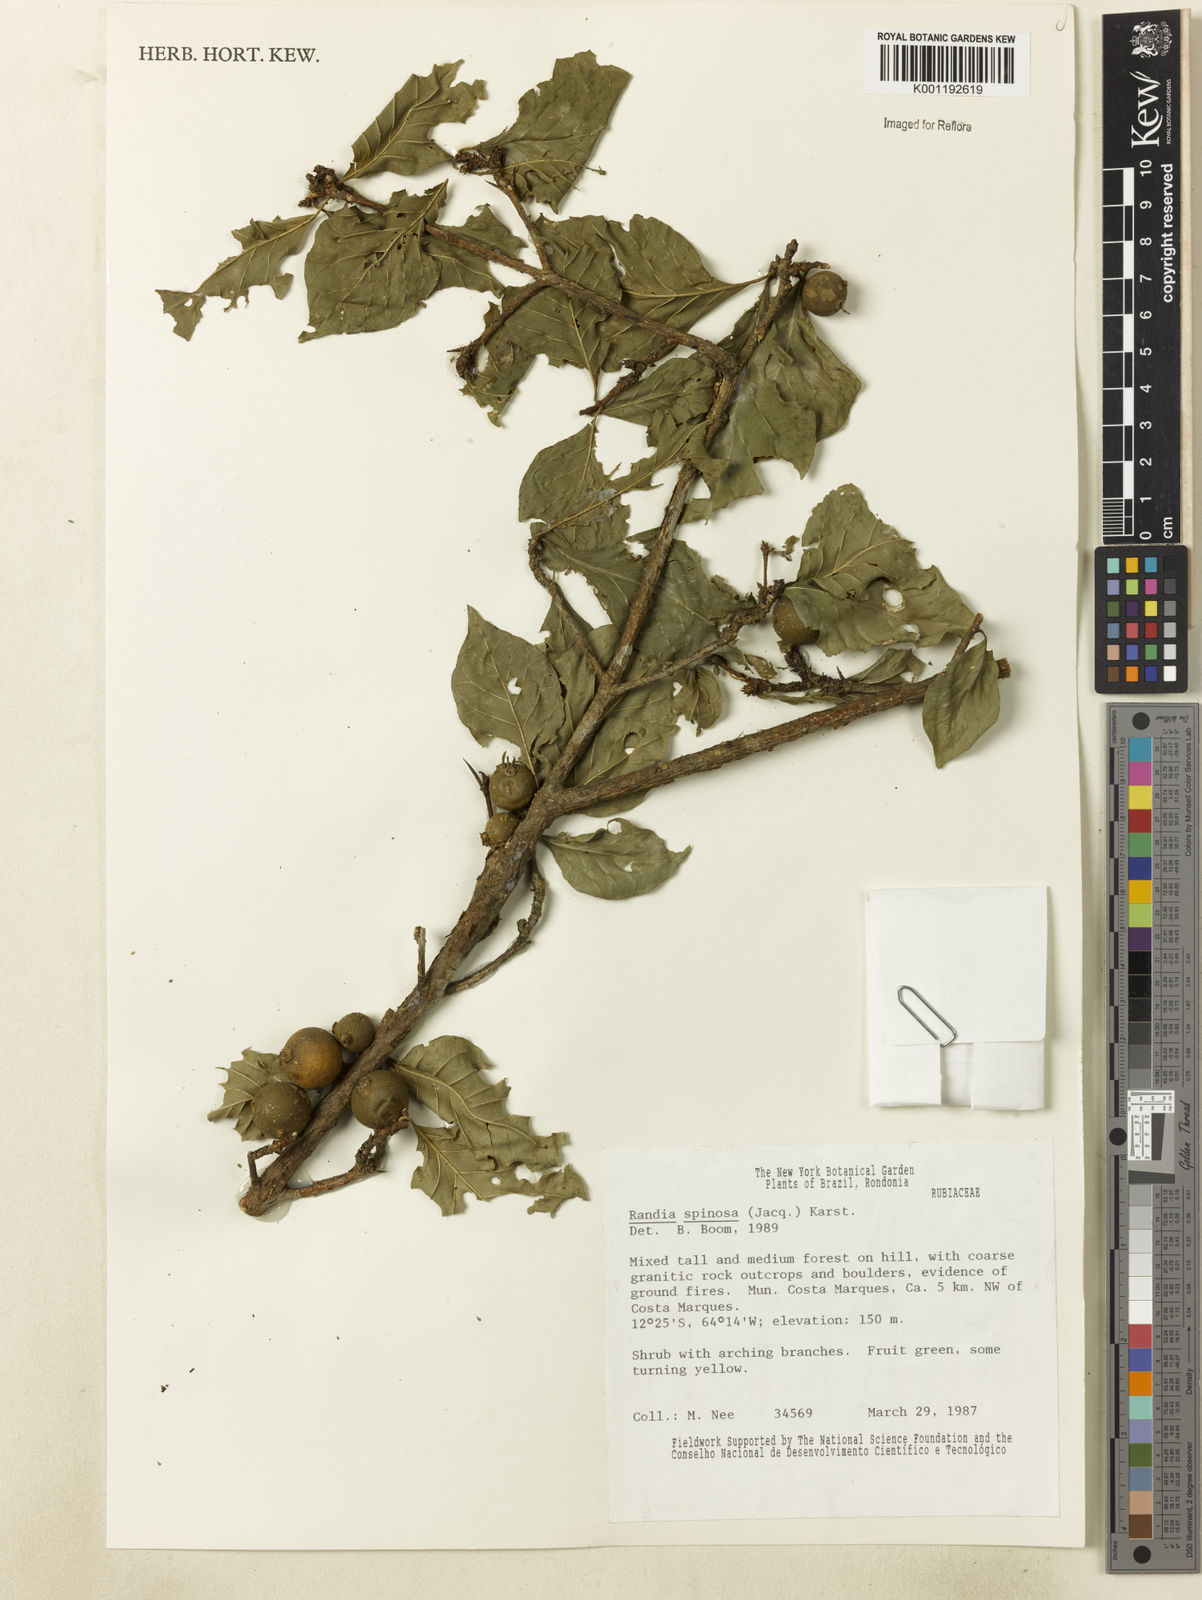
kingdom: Plantae
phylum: Tracheophyta
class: Magnoliopsida
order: Gentianales
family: Rubiaceae
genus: Randia
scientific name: Randia armata
